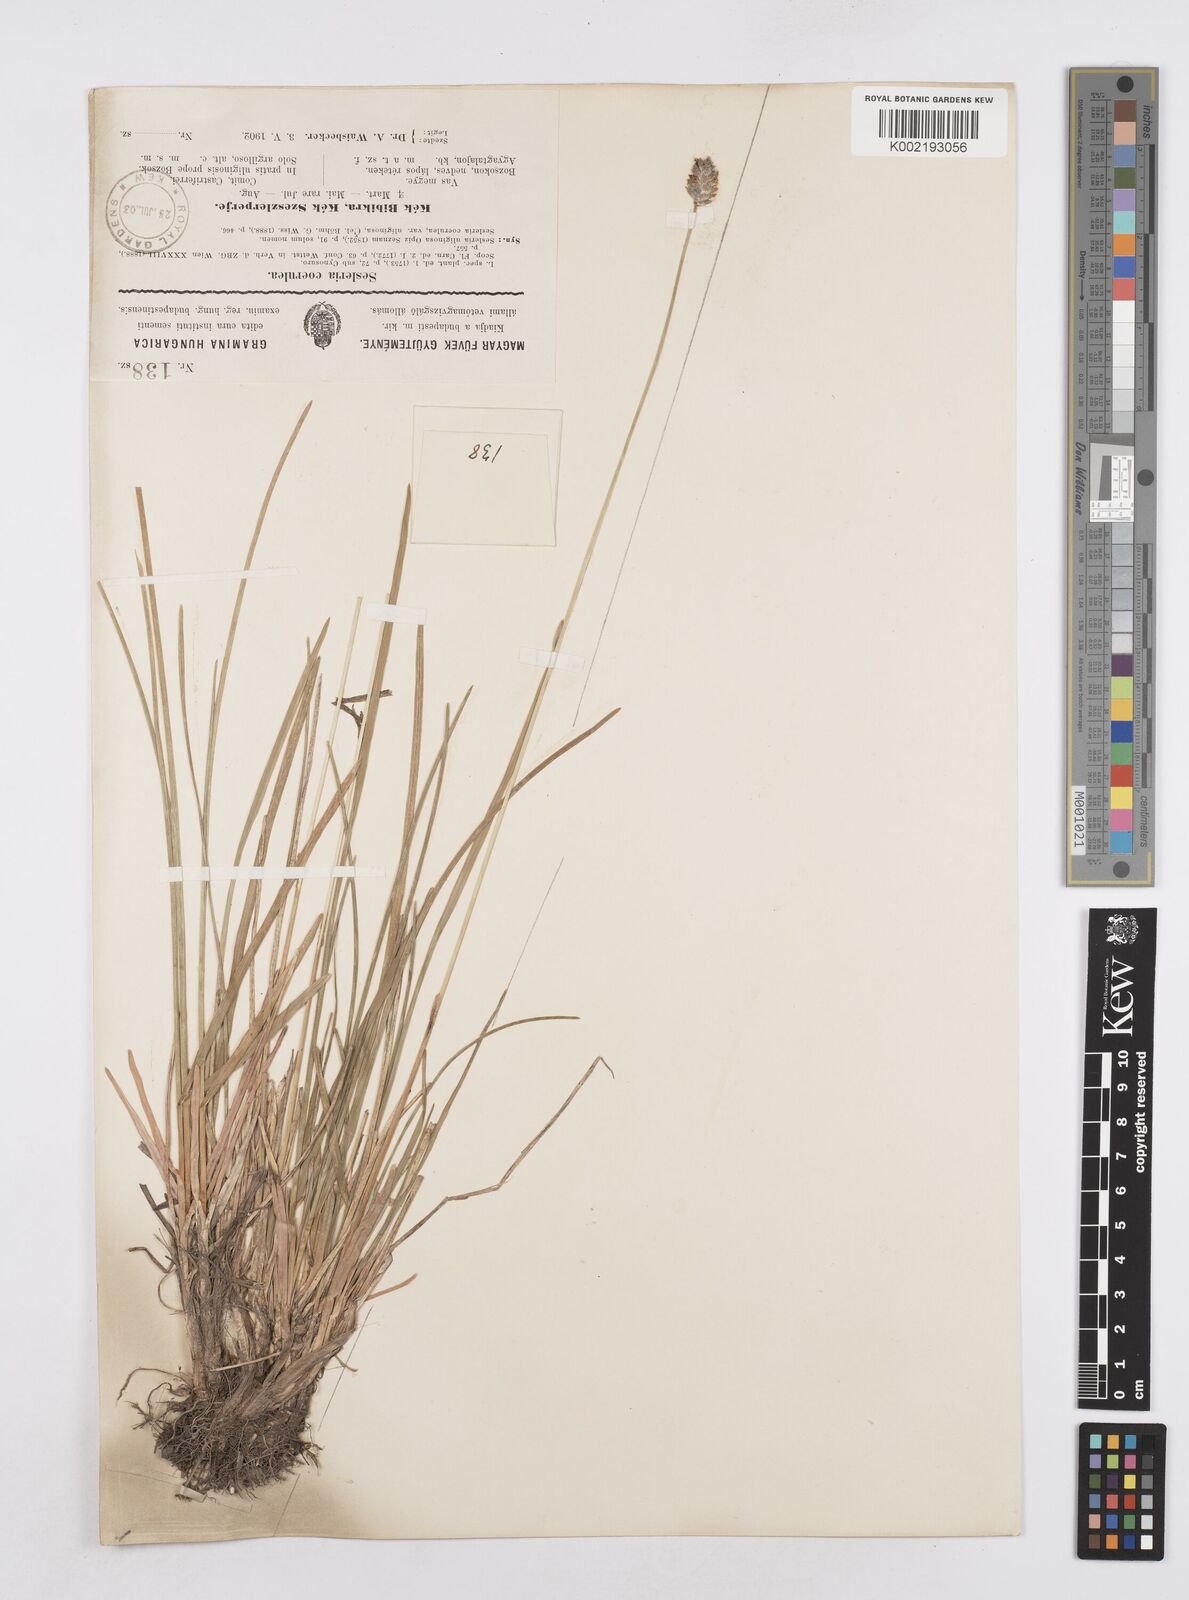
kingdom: Plantae
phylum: Tracheophyta
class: Liliopsida
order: Poales
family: Poaceae
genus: Sesleria
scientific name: Sesleria caerulea
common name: Blue moor-grass
